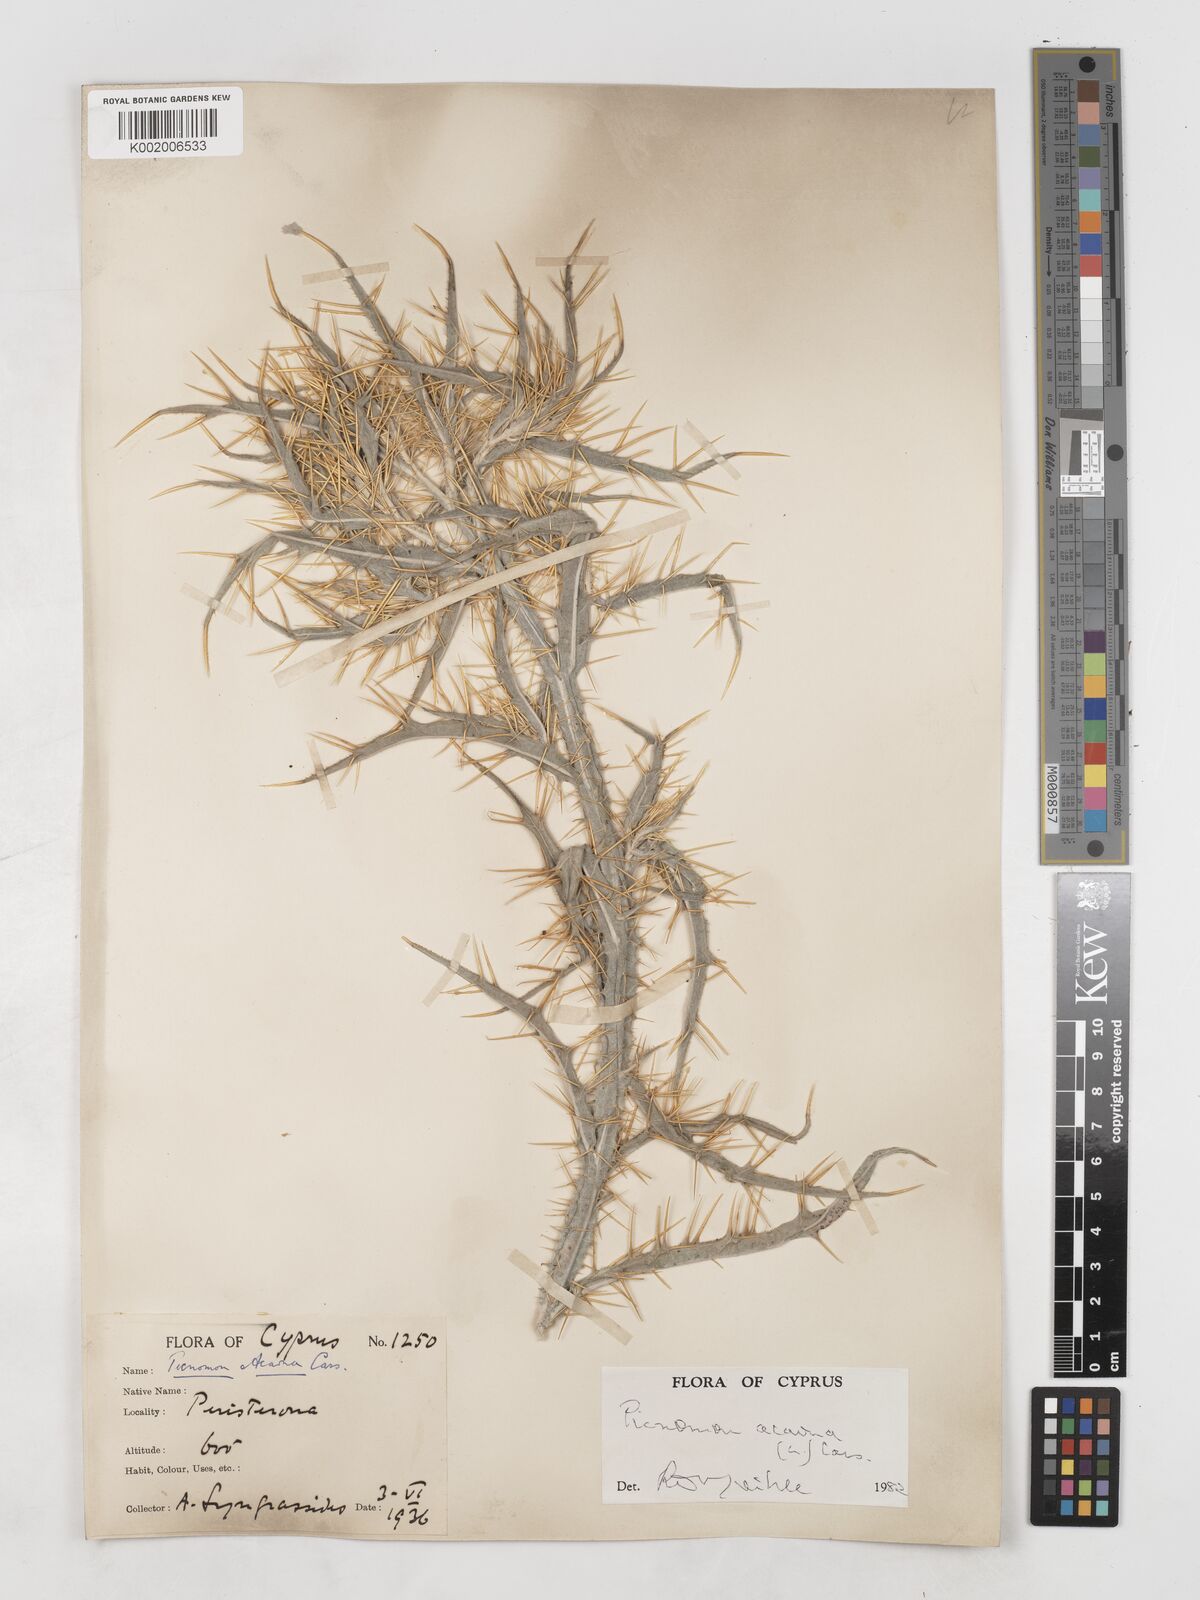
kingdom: Plantae
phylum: Tracheophyta
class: Magnoliopsida
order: Asterales
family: Asteraceae
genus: Picnomon
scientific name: Picnomon acarna
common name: Soldier thistle
